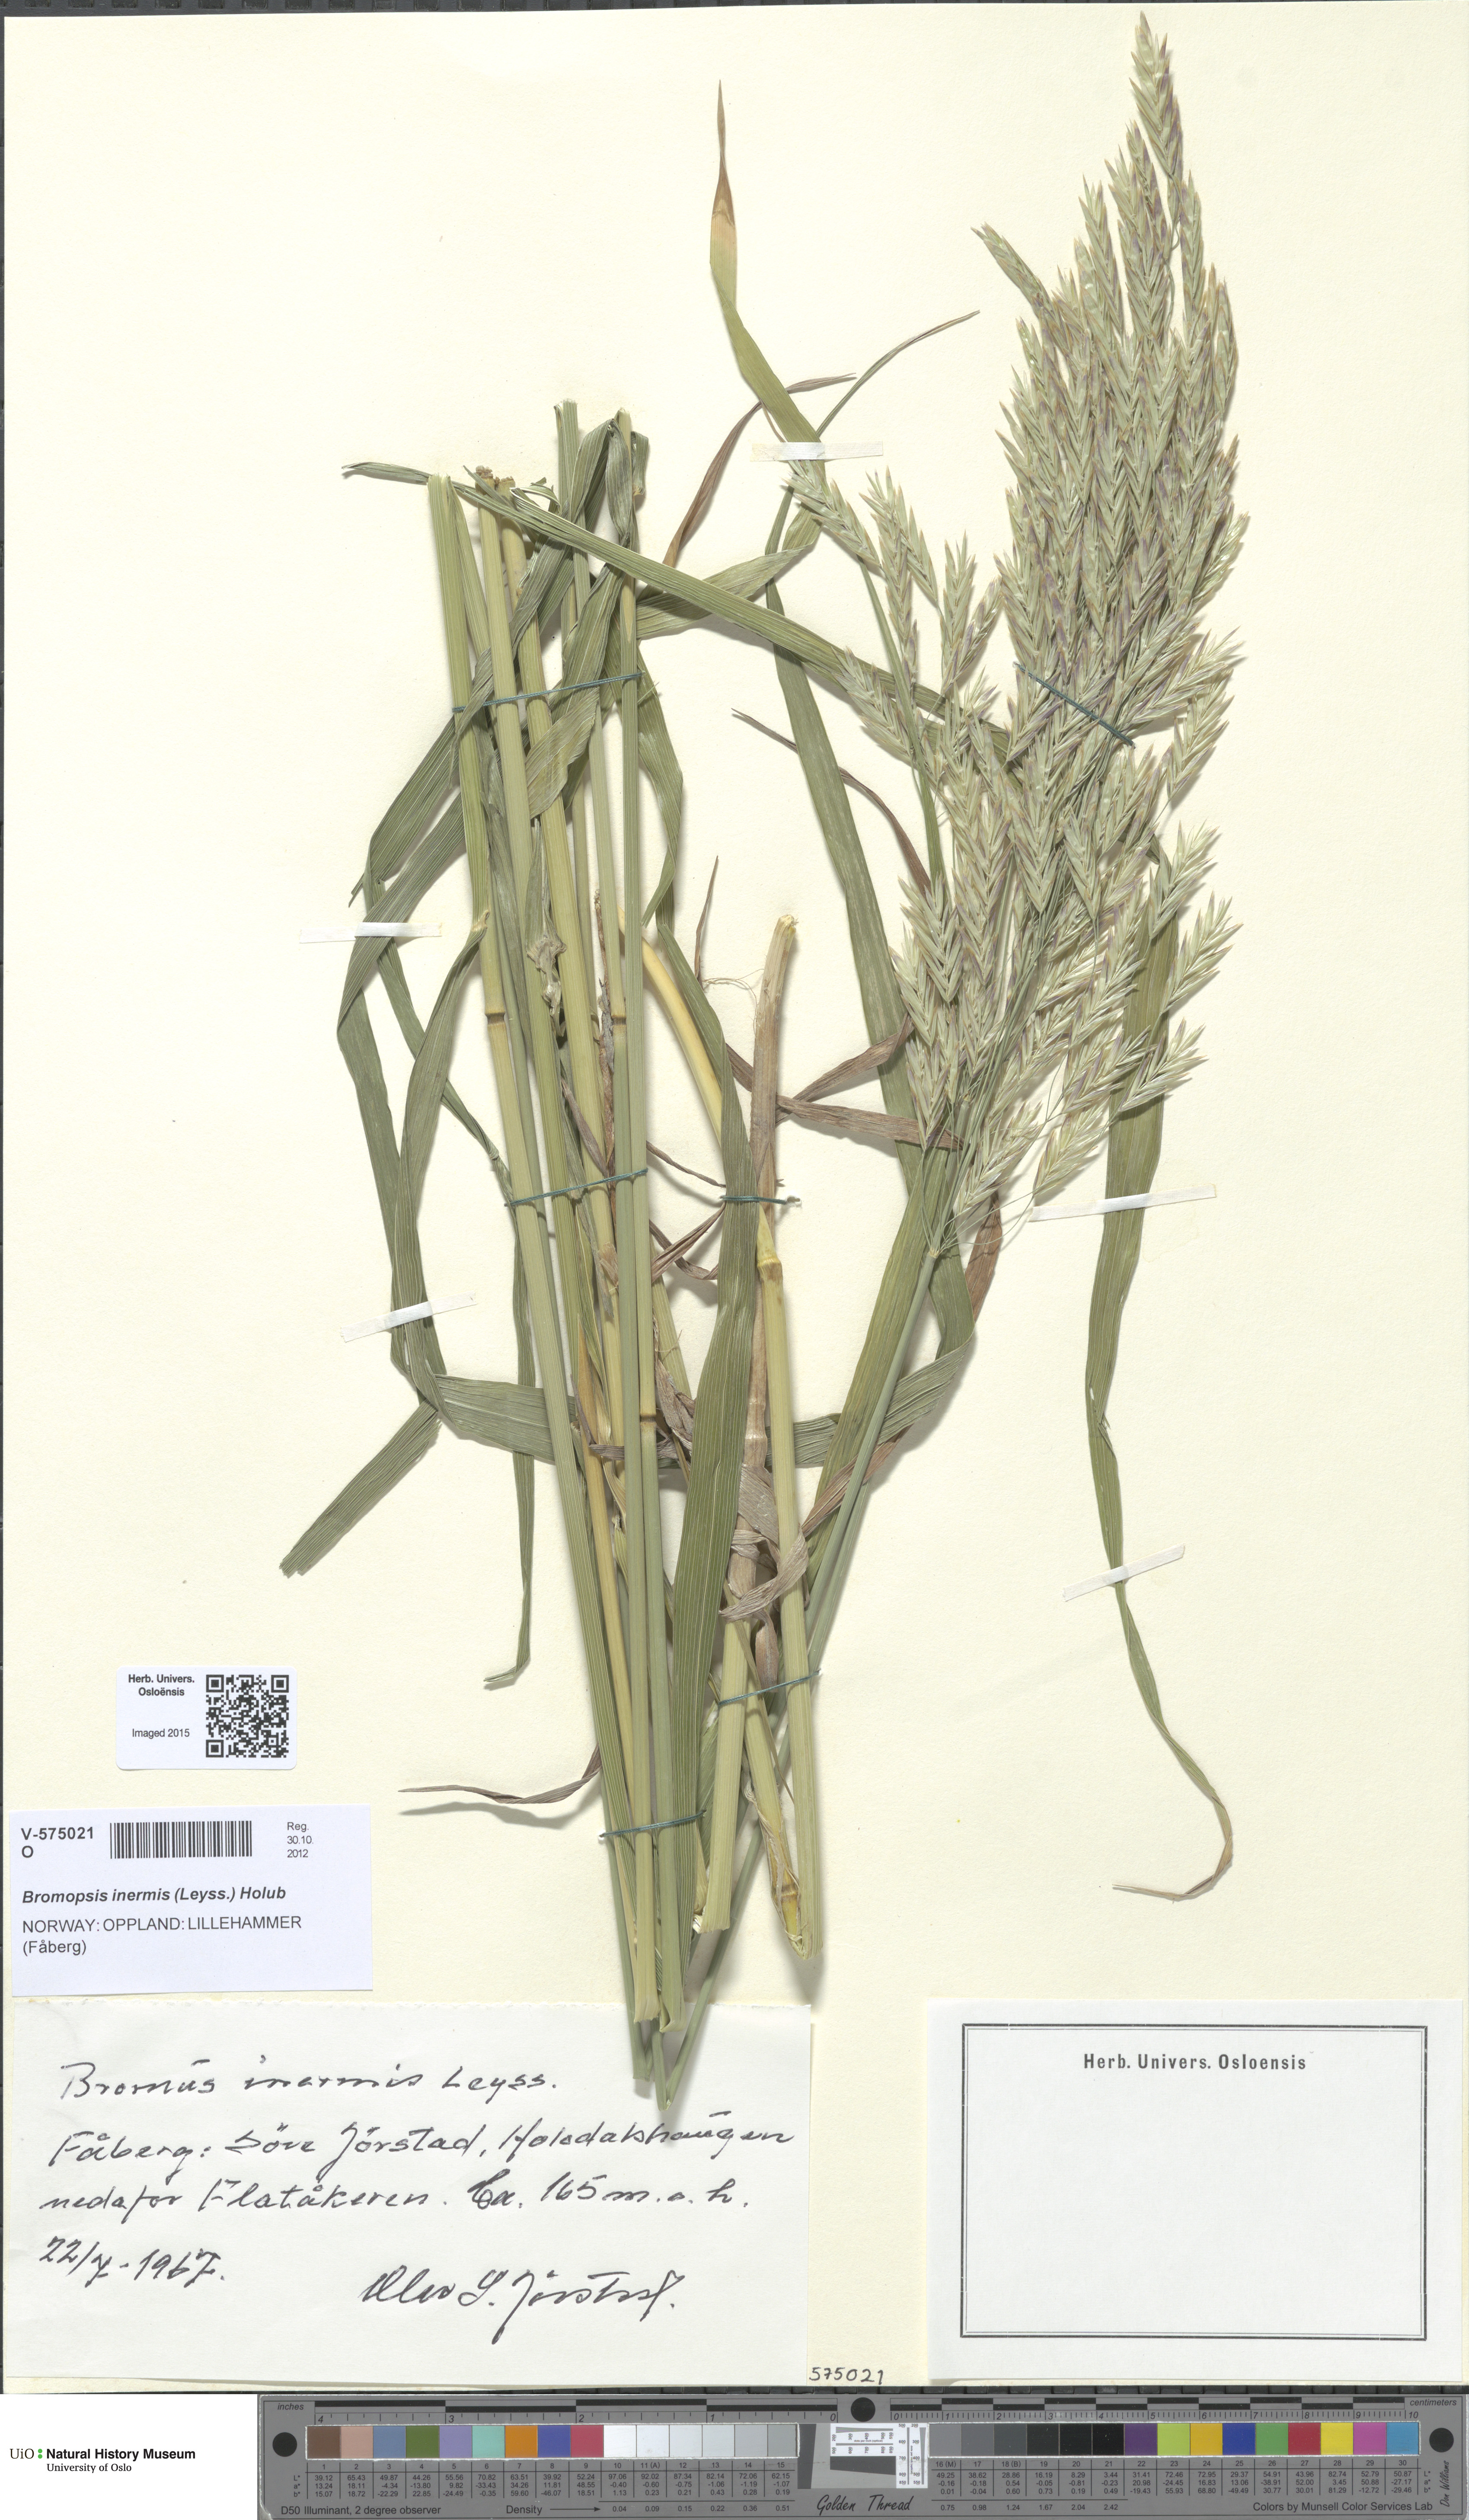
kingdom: Plantae
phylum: Tracheophyta
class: Liliopsida
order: Poales
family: Poaceae
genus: Bromus
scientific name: Bromus inermis
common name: Smooth brome
